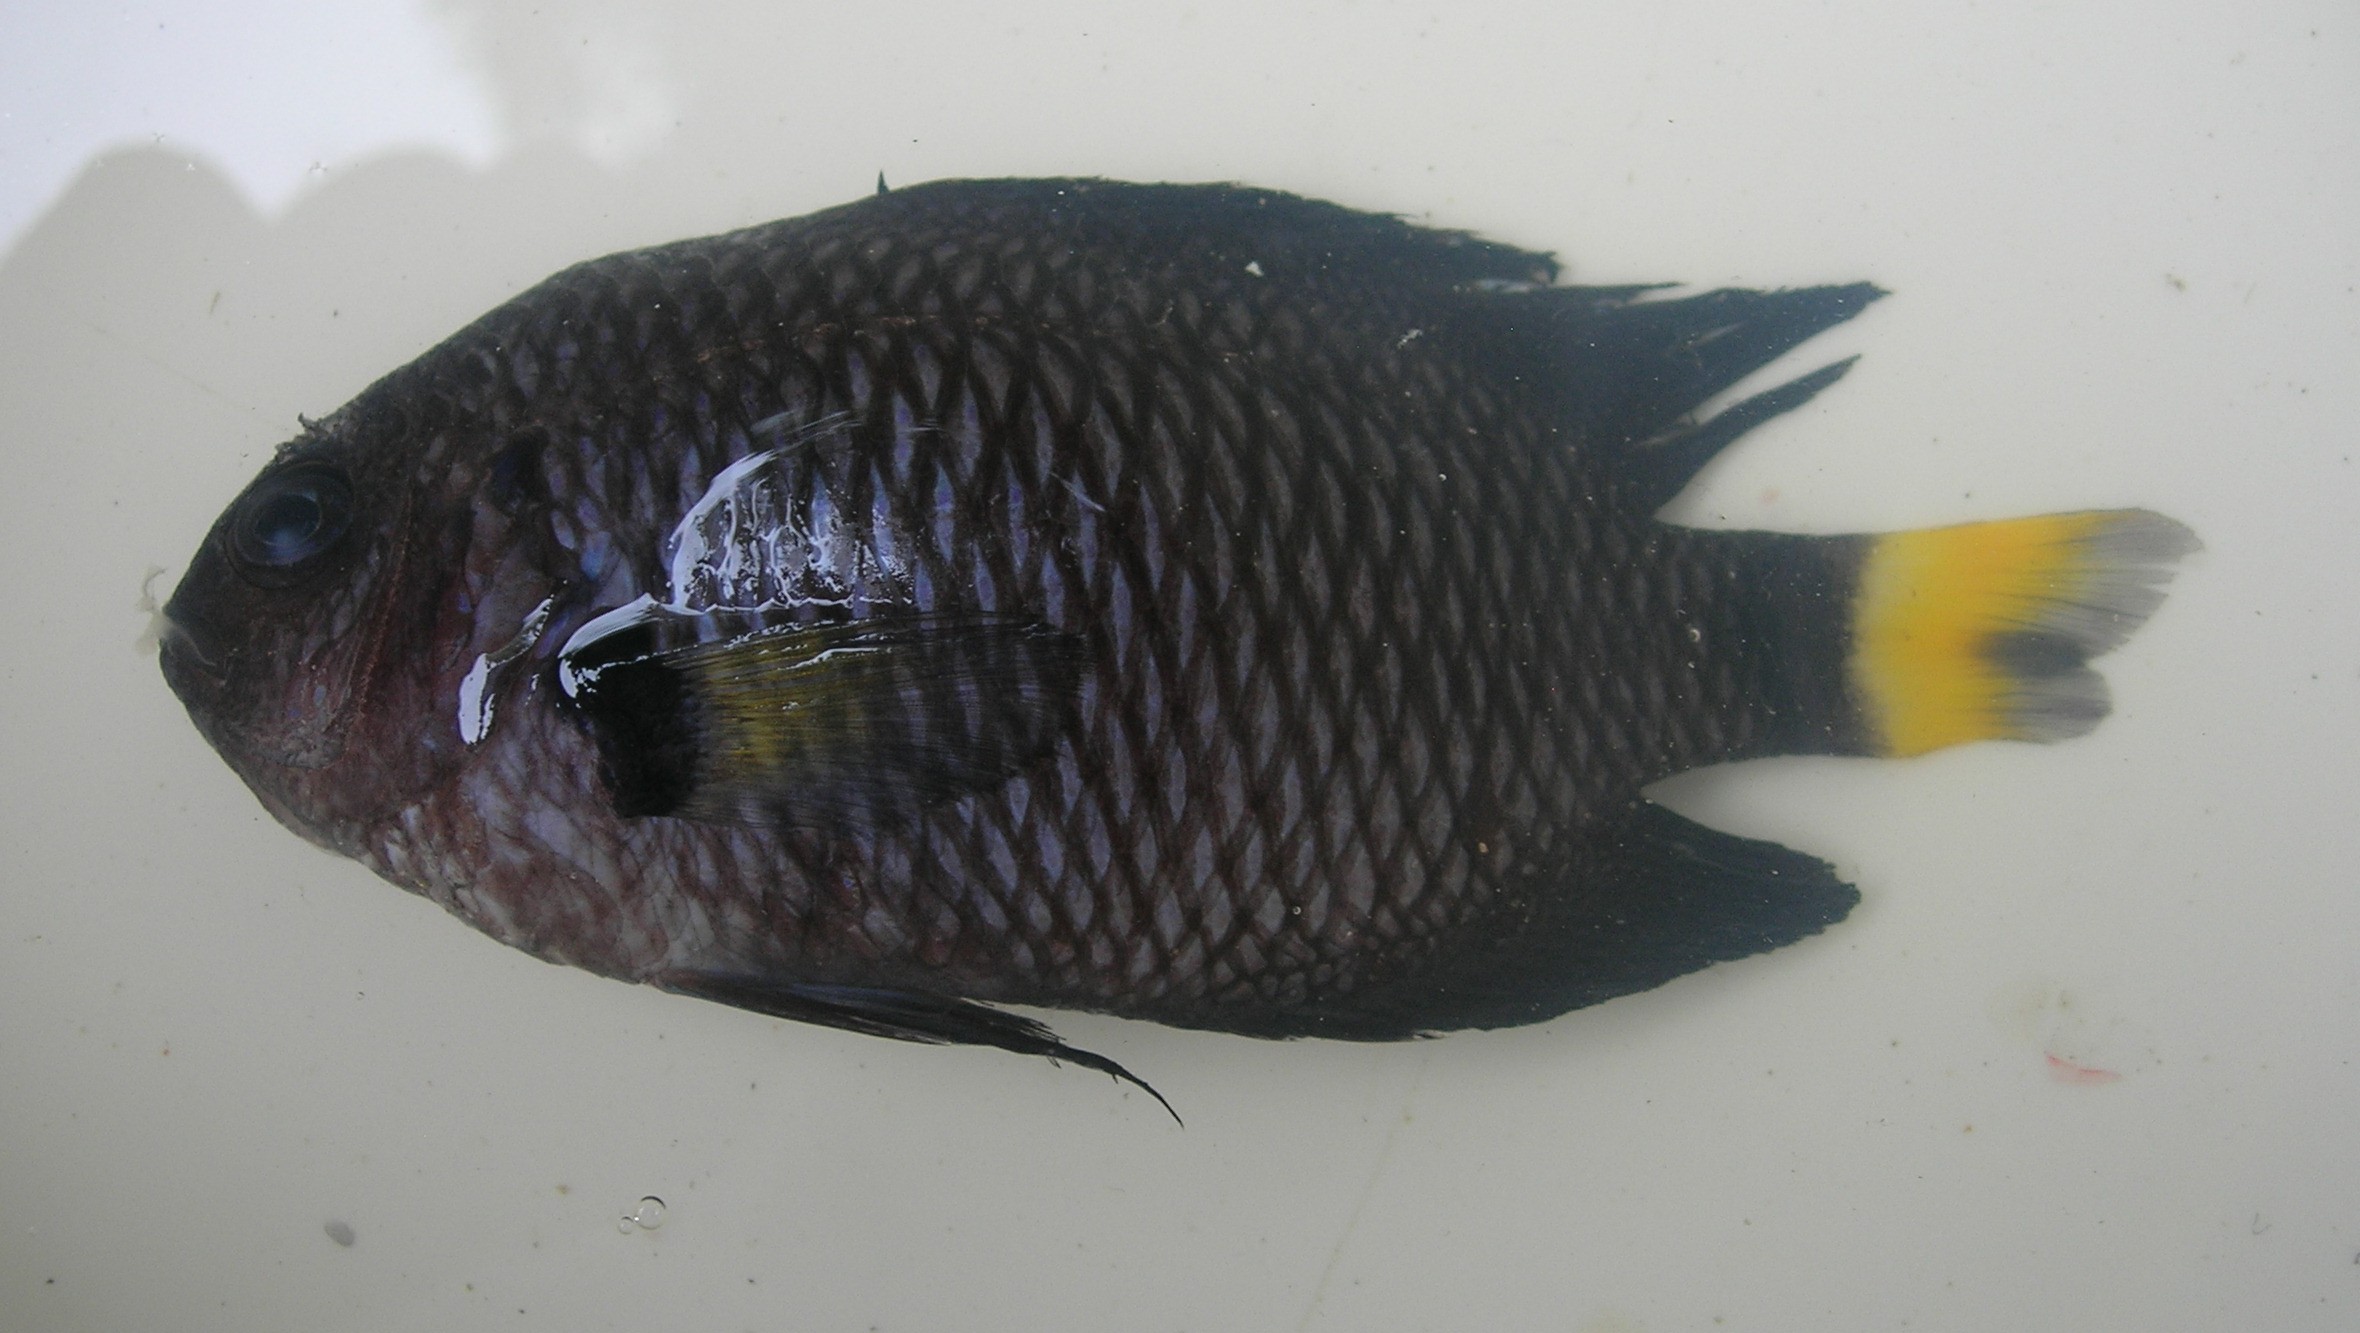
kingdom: Animalia
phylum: Chordata
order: Perciformes
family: Pomacentridae
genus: Pomacentrus
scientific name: Pomacentrus trichrourus
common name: Paletail damsel
